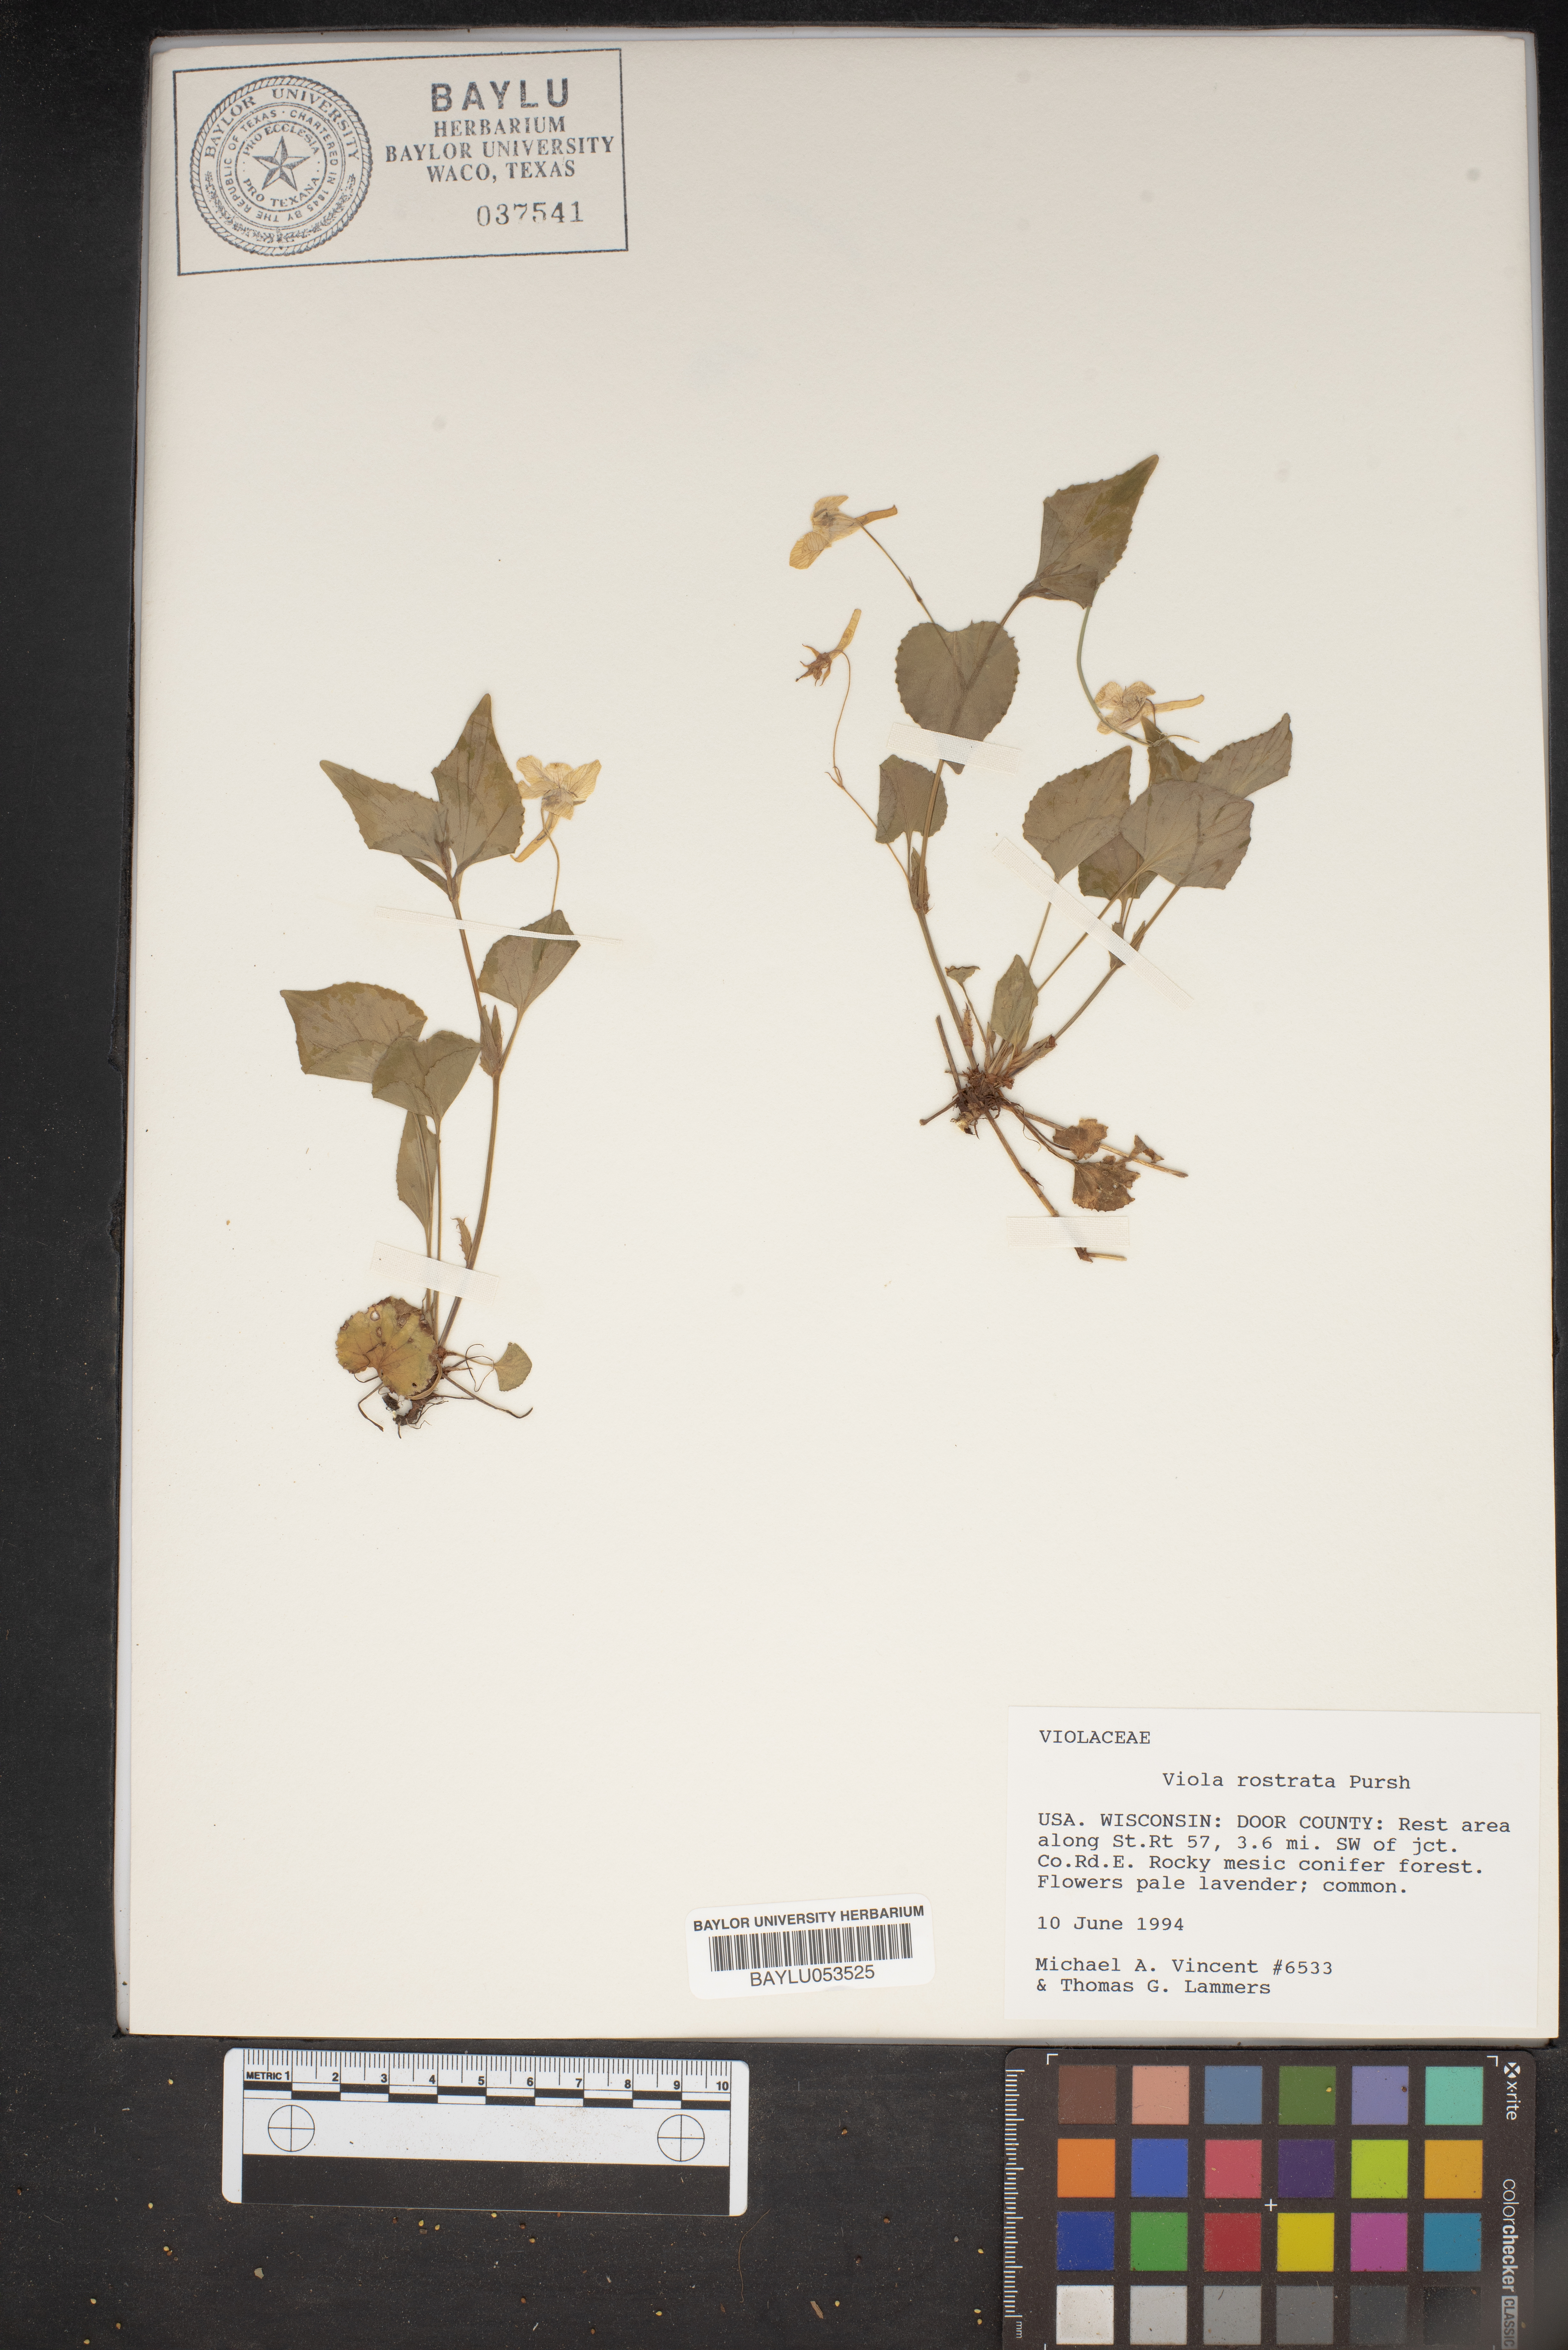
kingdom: Plantae
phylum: Tracheophyta
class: Magnoliopsida
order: Malpighiales
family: Violaceae
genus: Viola
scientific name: Viola rostrata
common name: Long-spur violet
